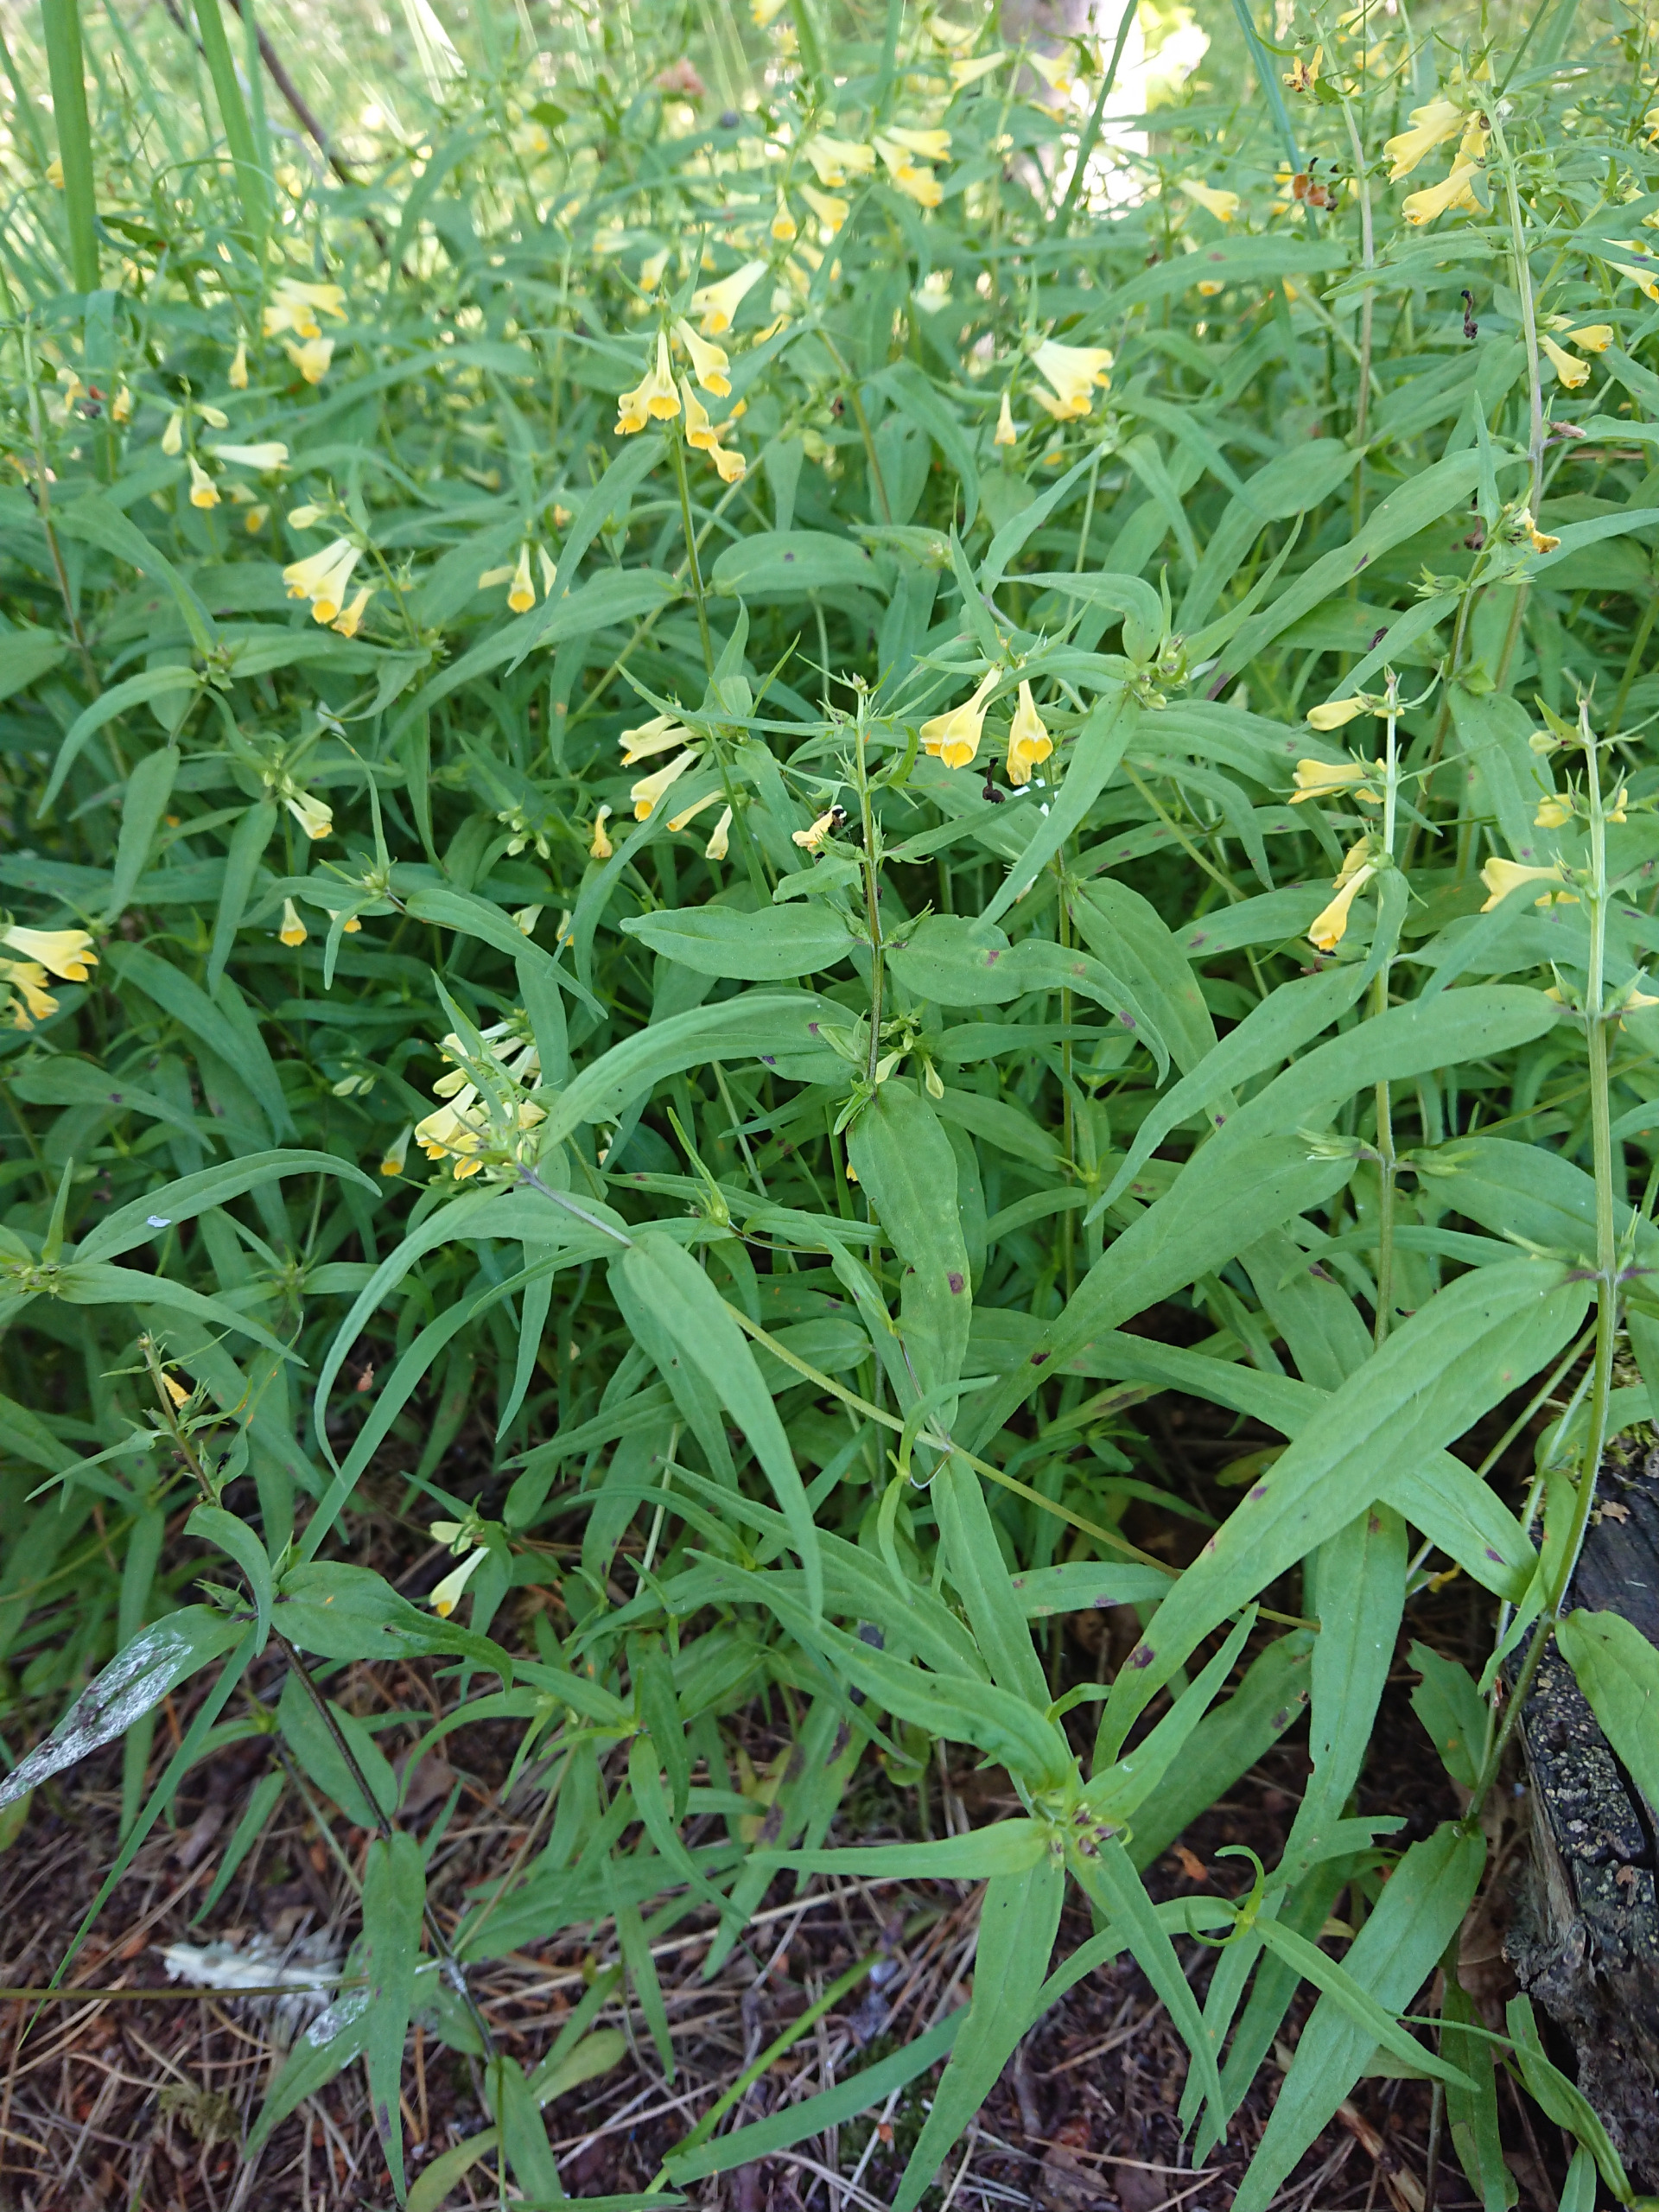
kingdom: Plantae
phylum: Tracheophyta
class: Magnoliopsida
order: Lamiales
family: Orobanchaceae
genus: Melampyrum
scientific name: Melampyrum pratense
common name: Almindelig kohvede
